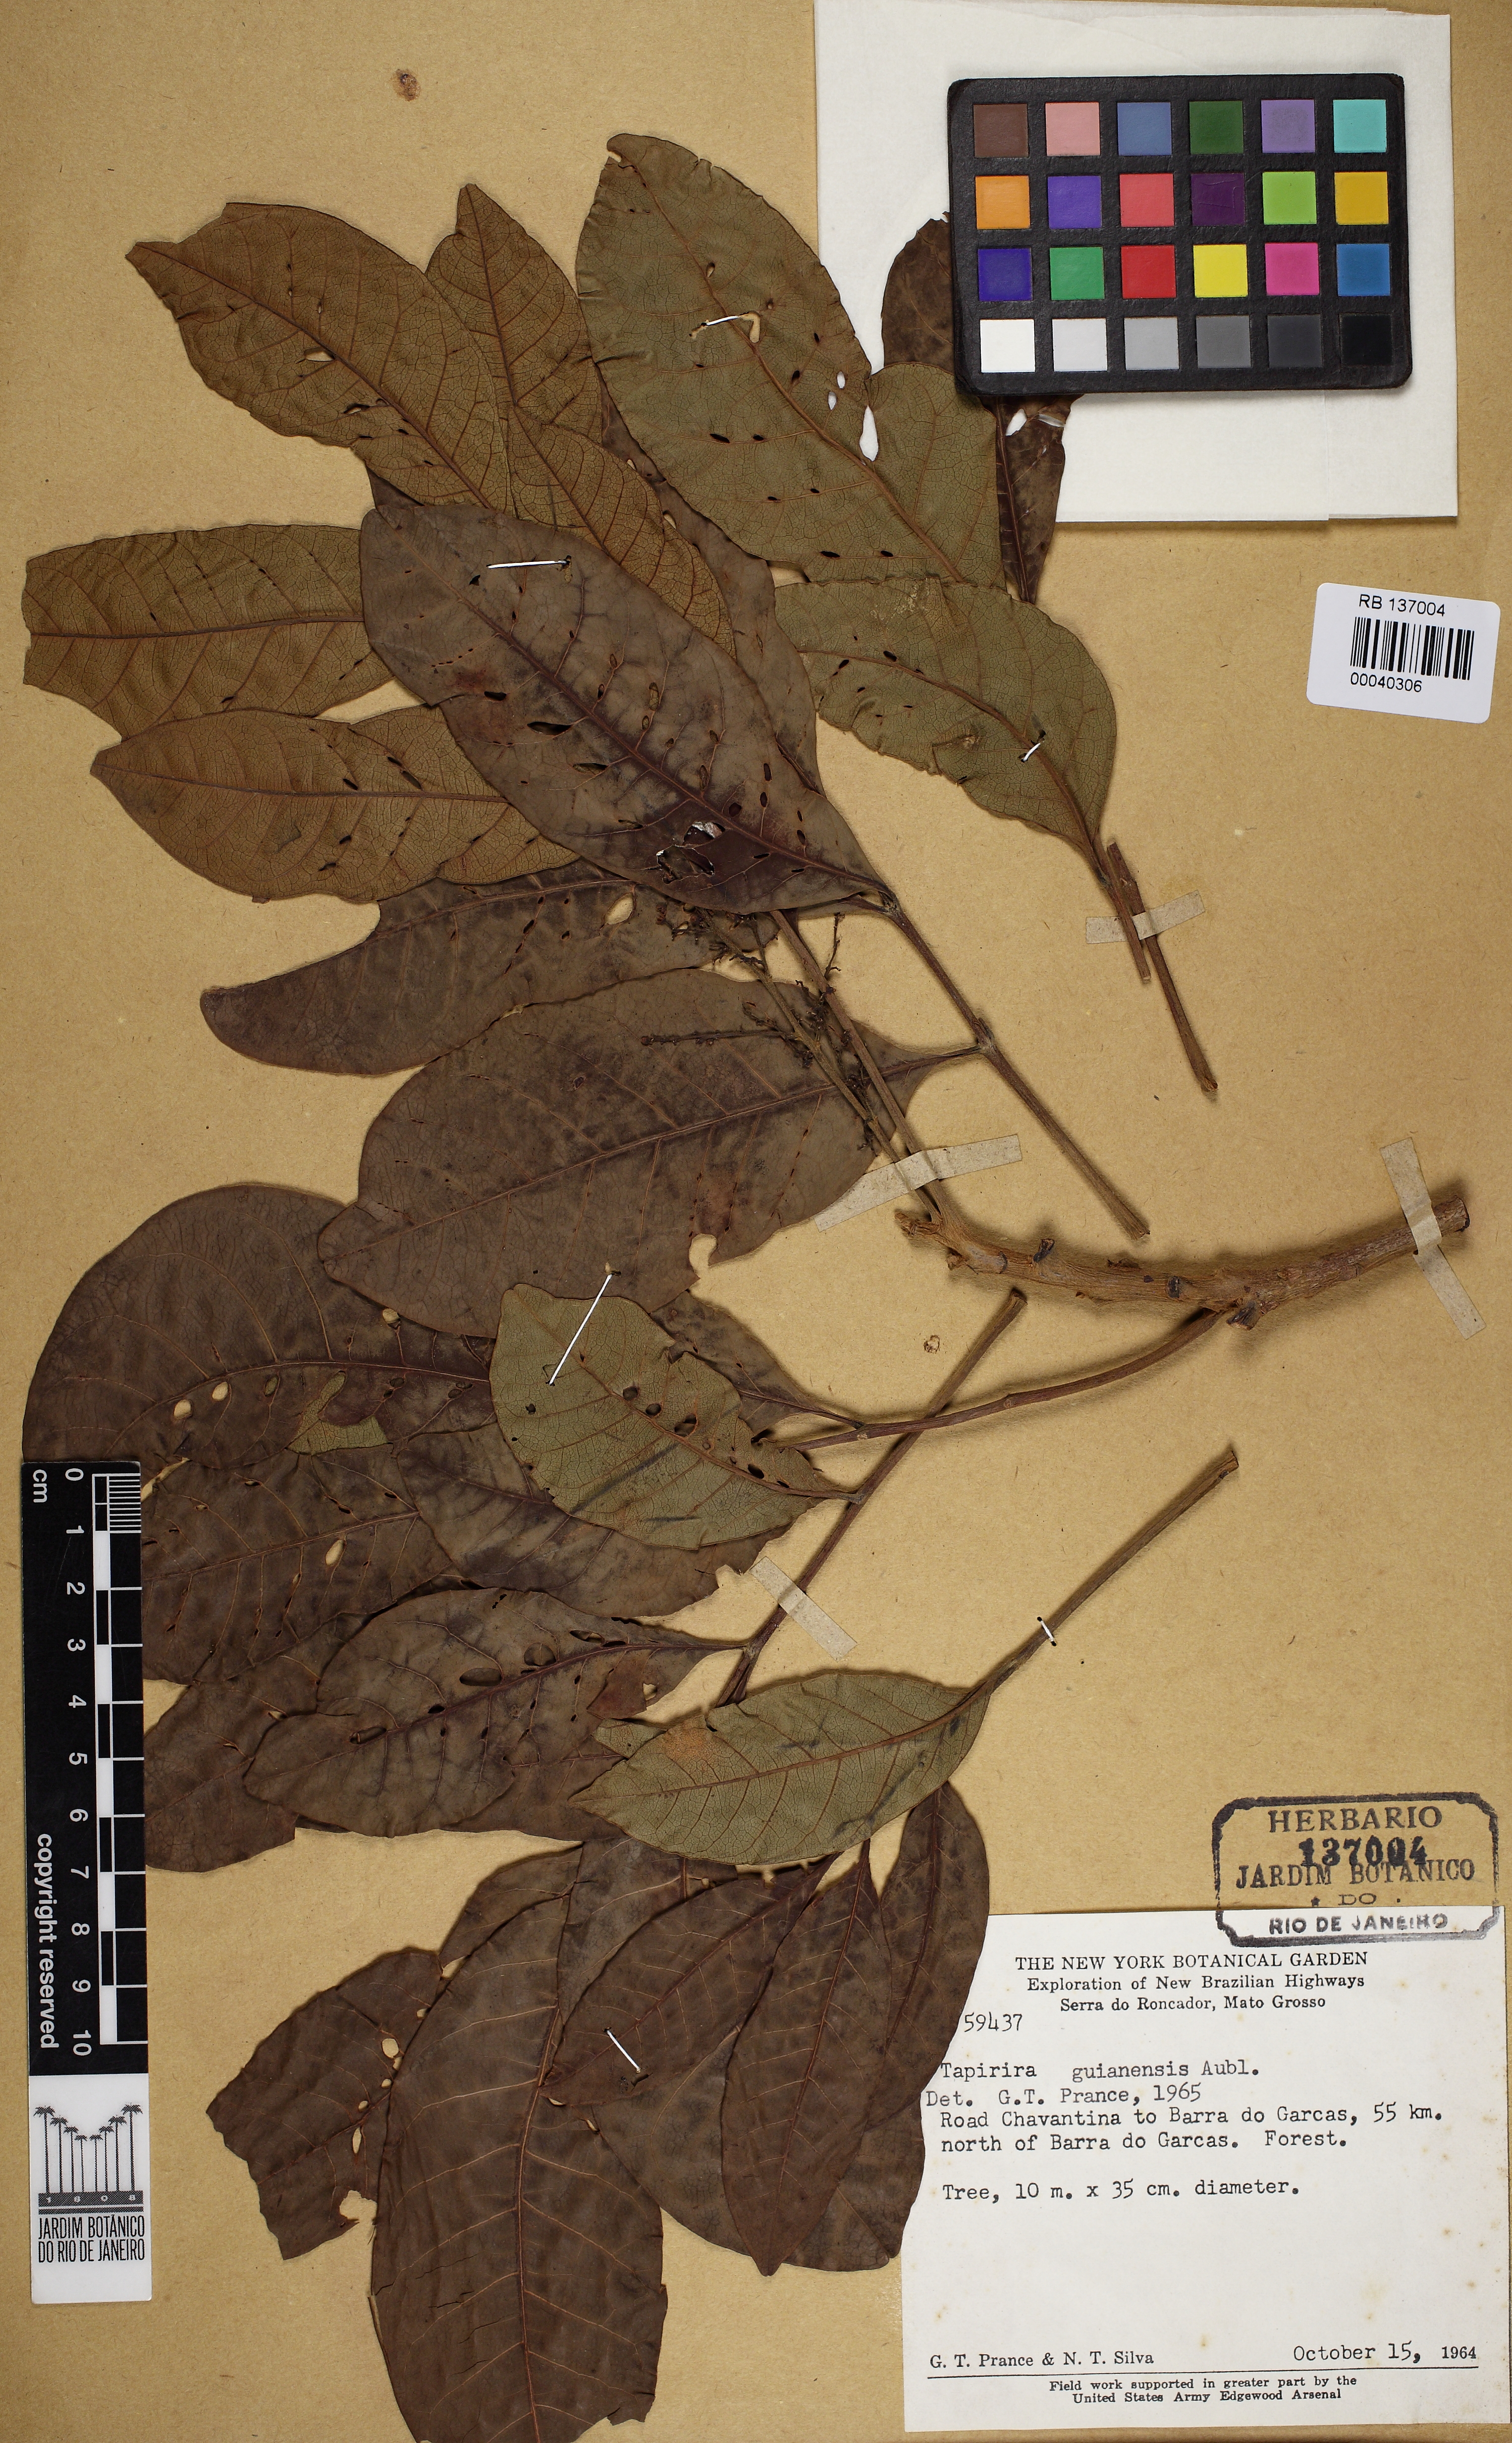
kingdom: Plantae
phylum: Tracheophyta
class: Magnoliopsida
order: Sapindales
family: Anacardiaceae
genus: Tapirira
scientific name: Tapirira guianensis
